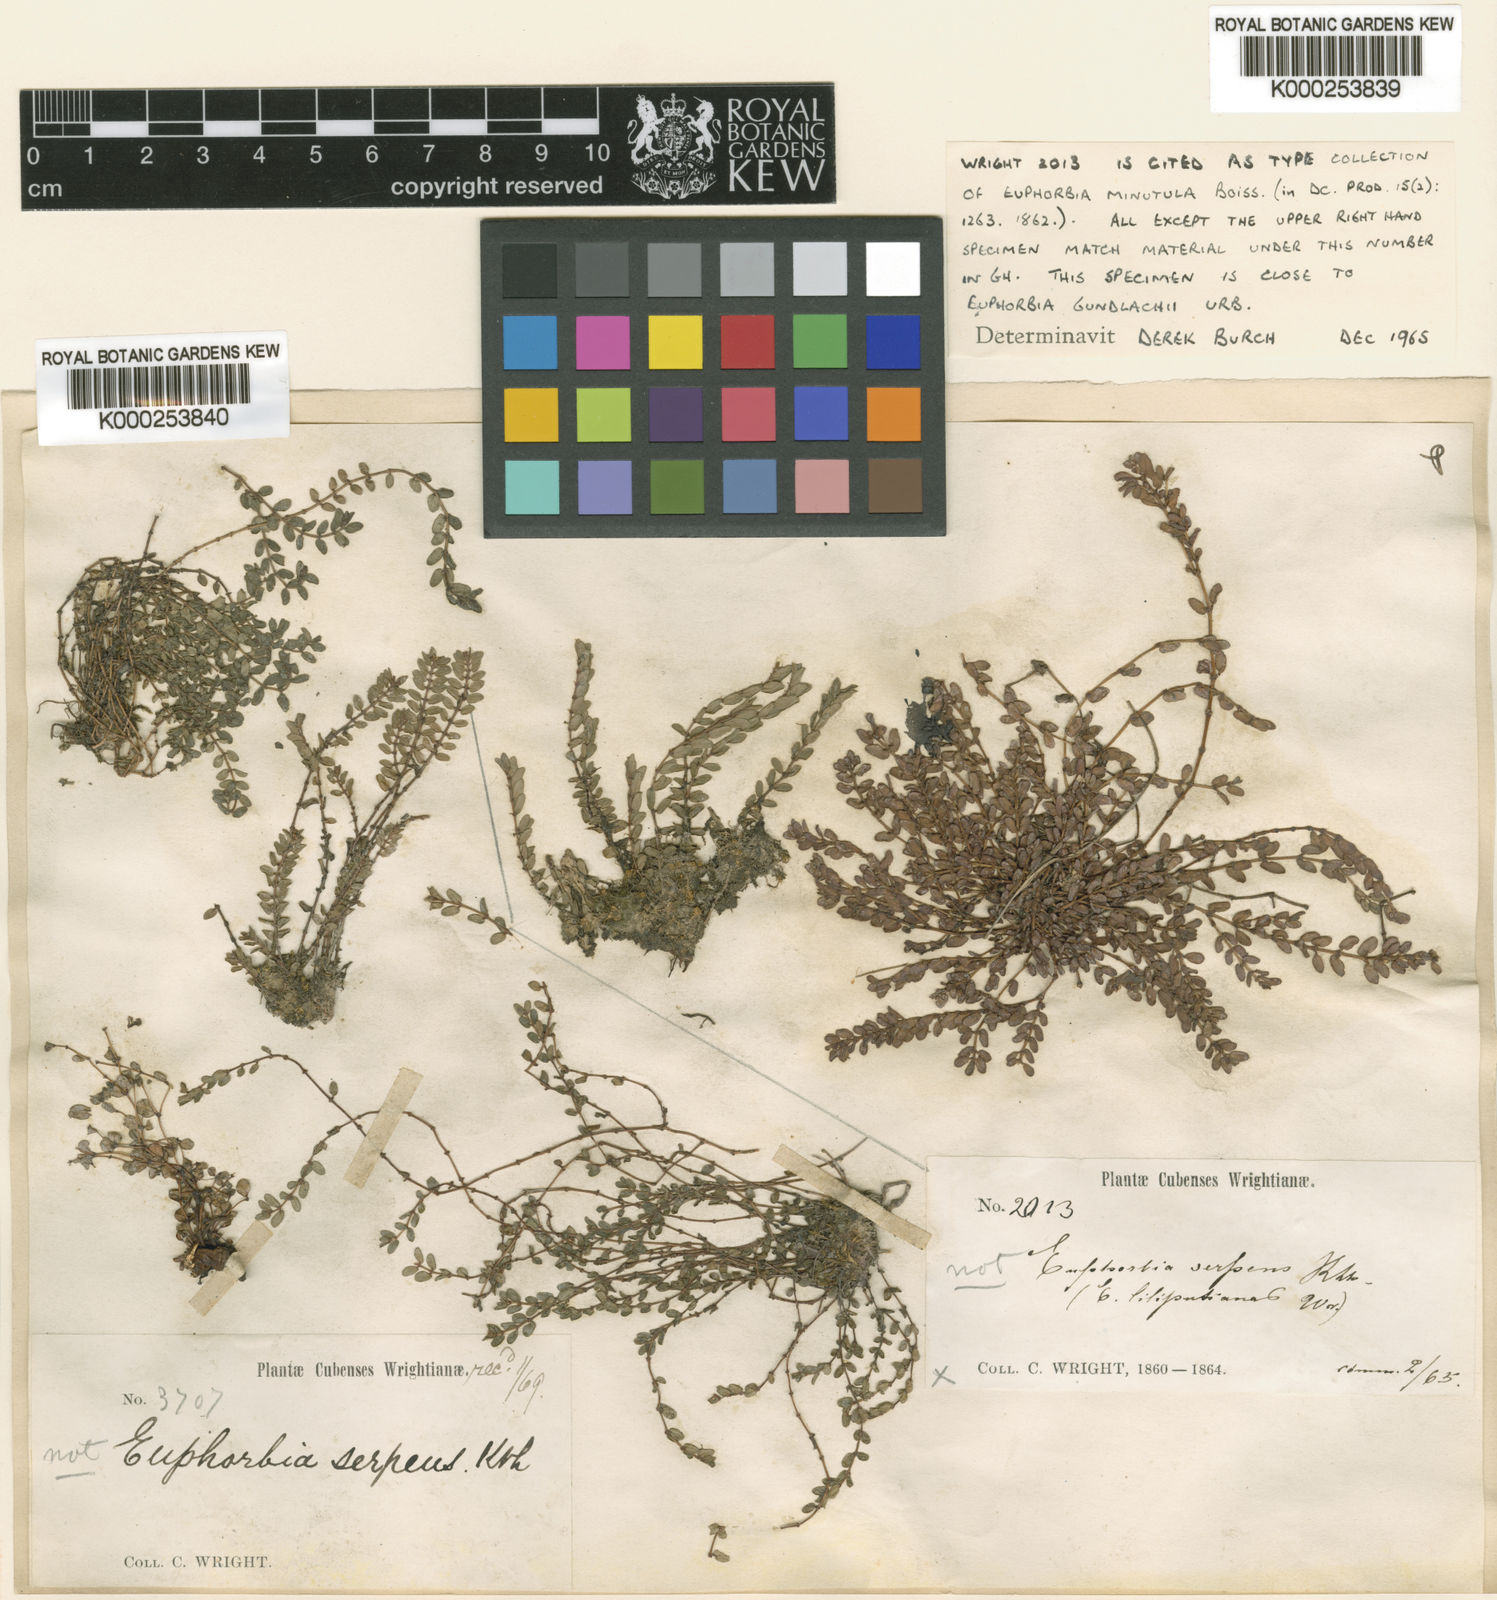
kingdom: Plantae
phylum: Tracheophyta
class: Magnoliopsida
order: Malpighiales
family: Euphorbiaceae
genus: Euphorbia
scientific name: Euphorbia minutula
